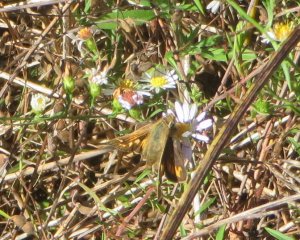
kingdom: Animalia
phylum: Arthropoda
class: Insecta
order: Lepidoptera
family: Hesperiidae
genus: Atalopedes
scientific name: Atalopedes campestris
